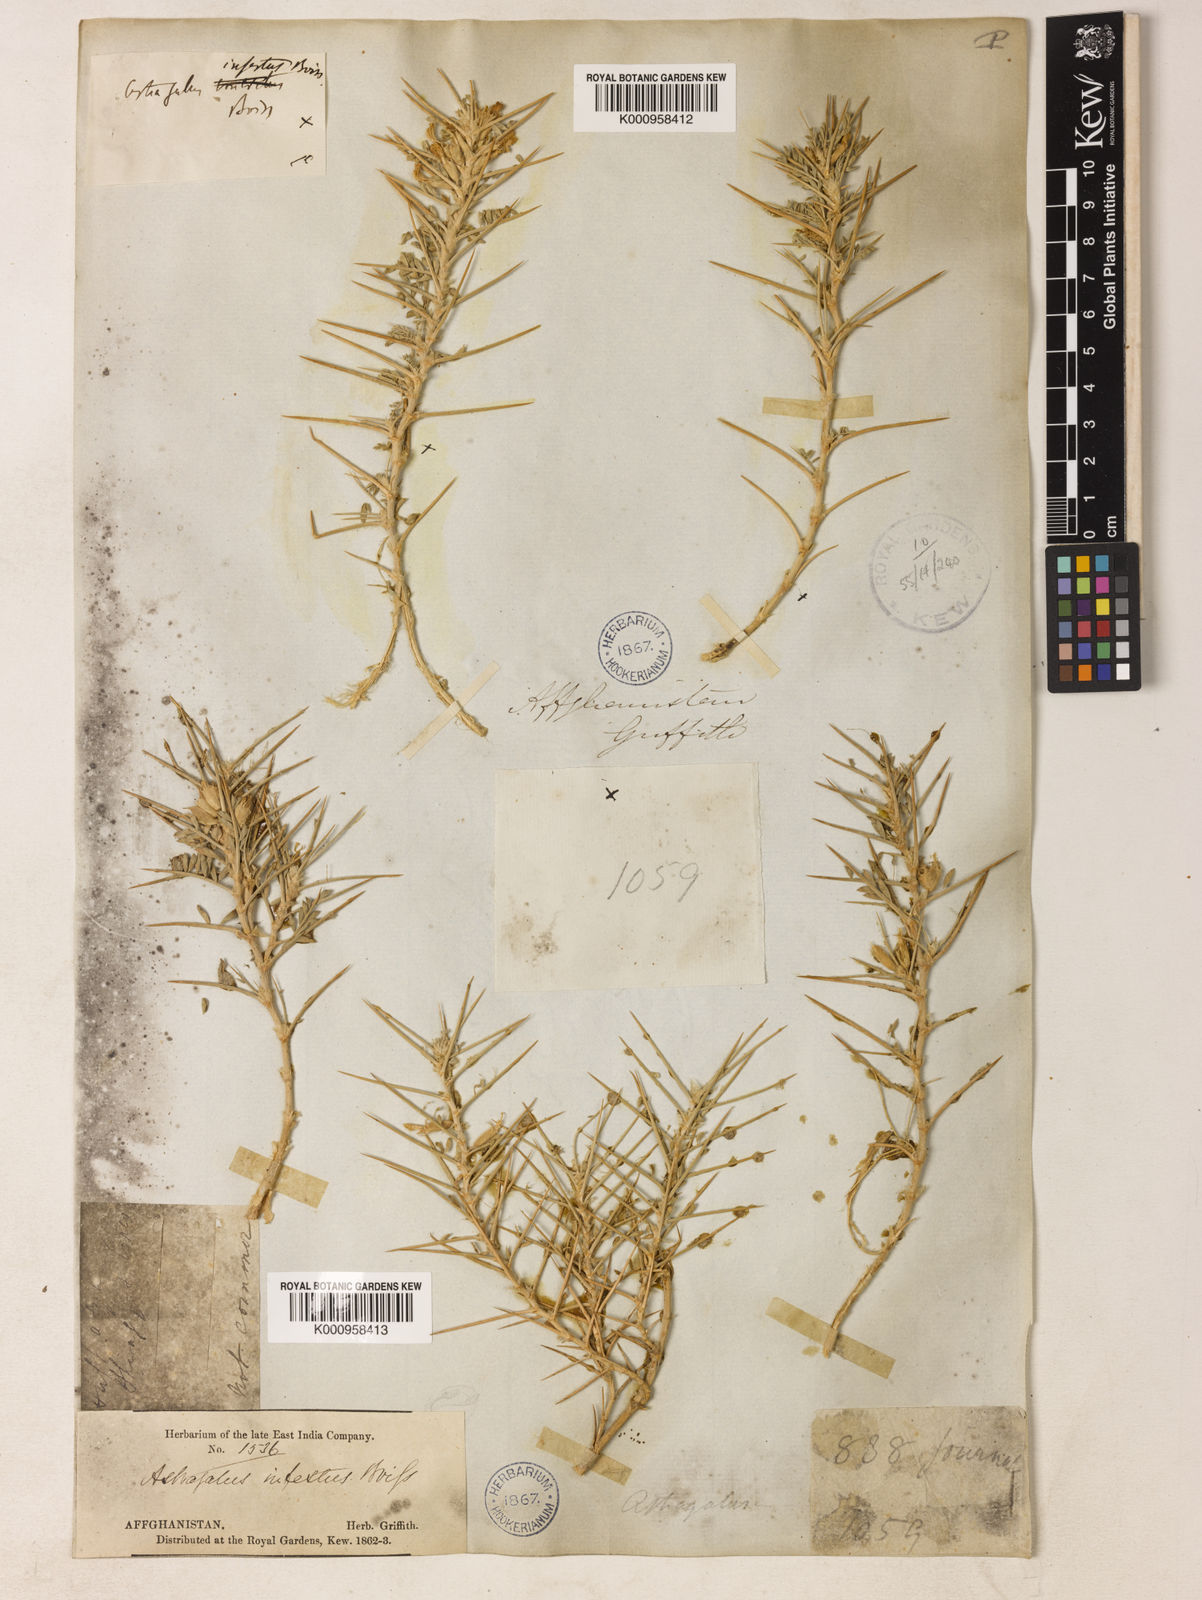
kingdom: Plantae
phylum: Tracheophyta
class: Magnoliopsida
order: Fabales
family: Fabaceae
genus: Astragalus
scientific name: Astragalus infestus
